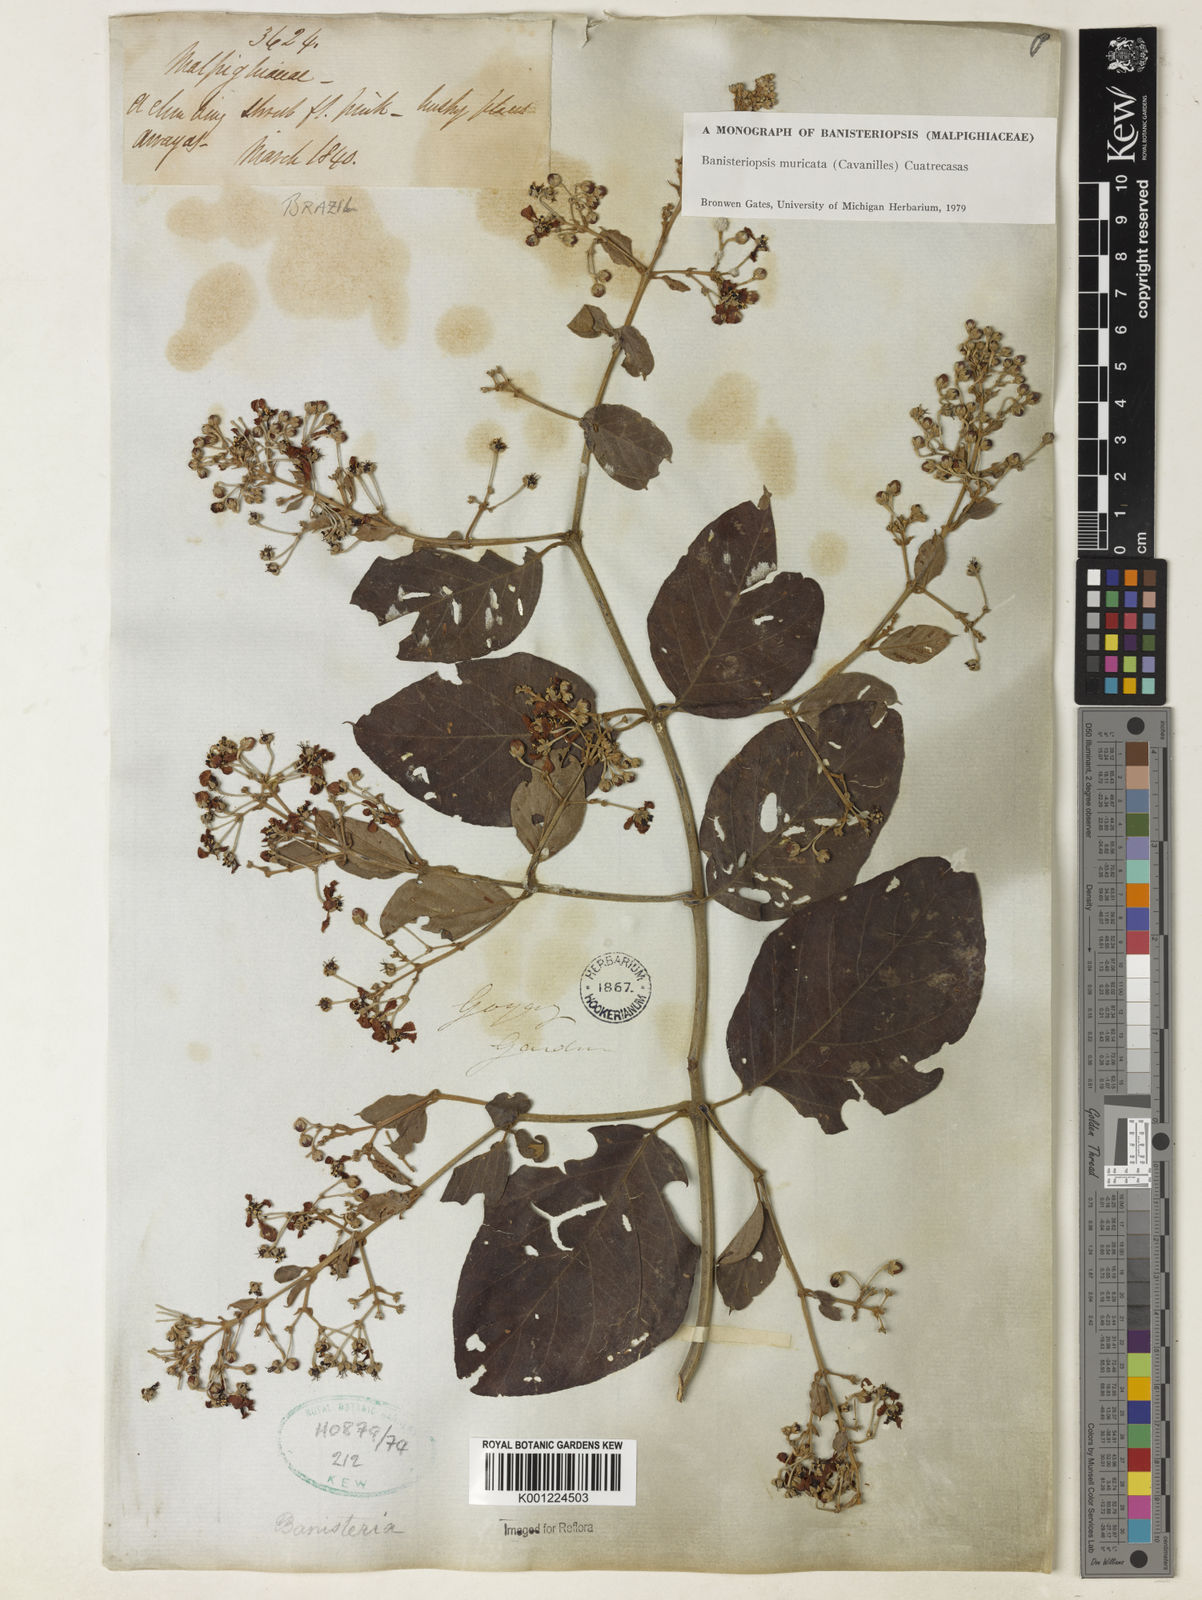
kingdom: Plantae
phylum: Tracheophyta
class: Magnoliopsida
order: Malpighiales
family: Malpighiaceae
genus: Banisteriopsis
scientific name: Banisteriopsis muricata
